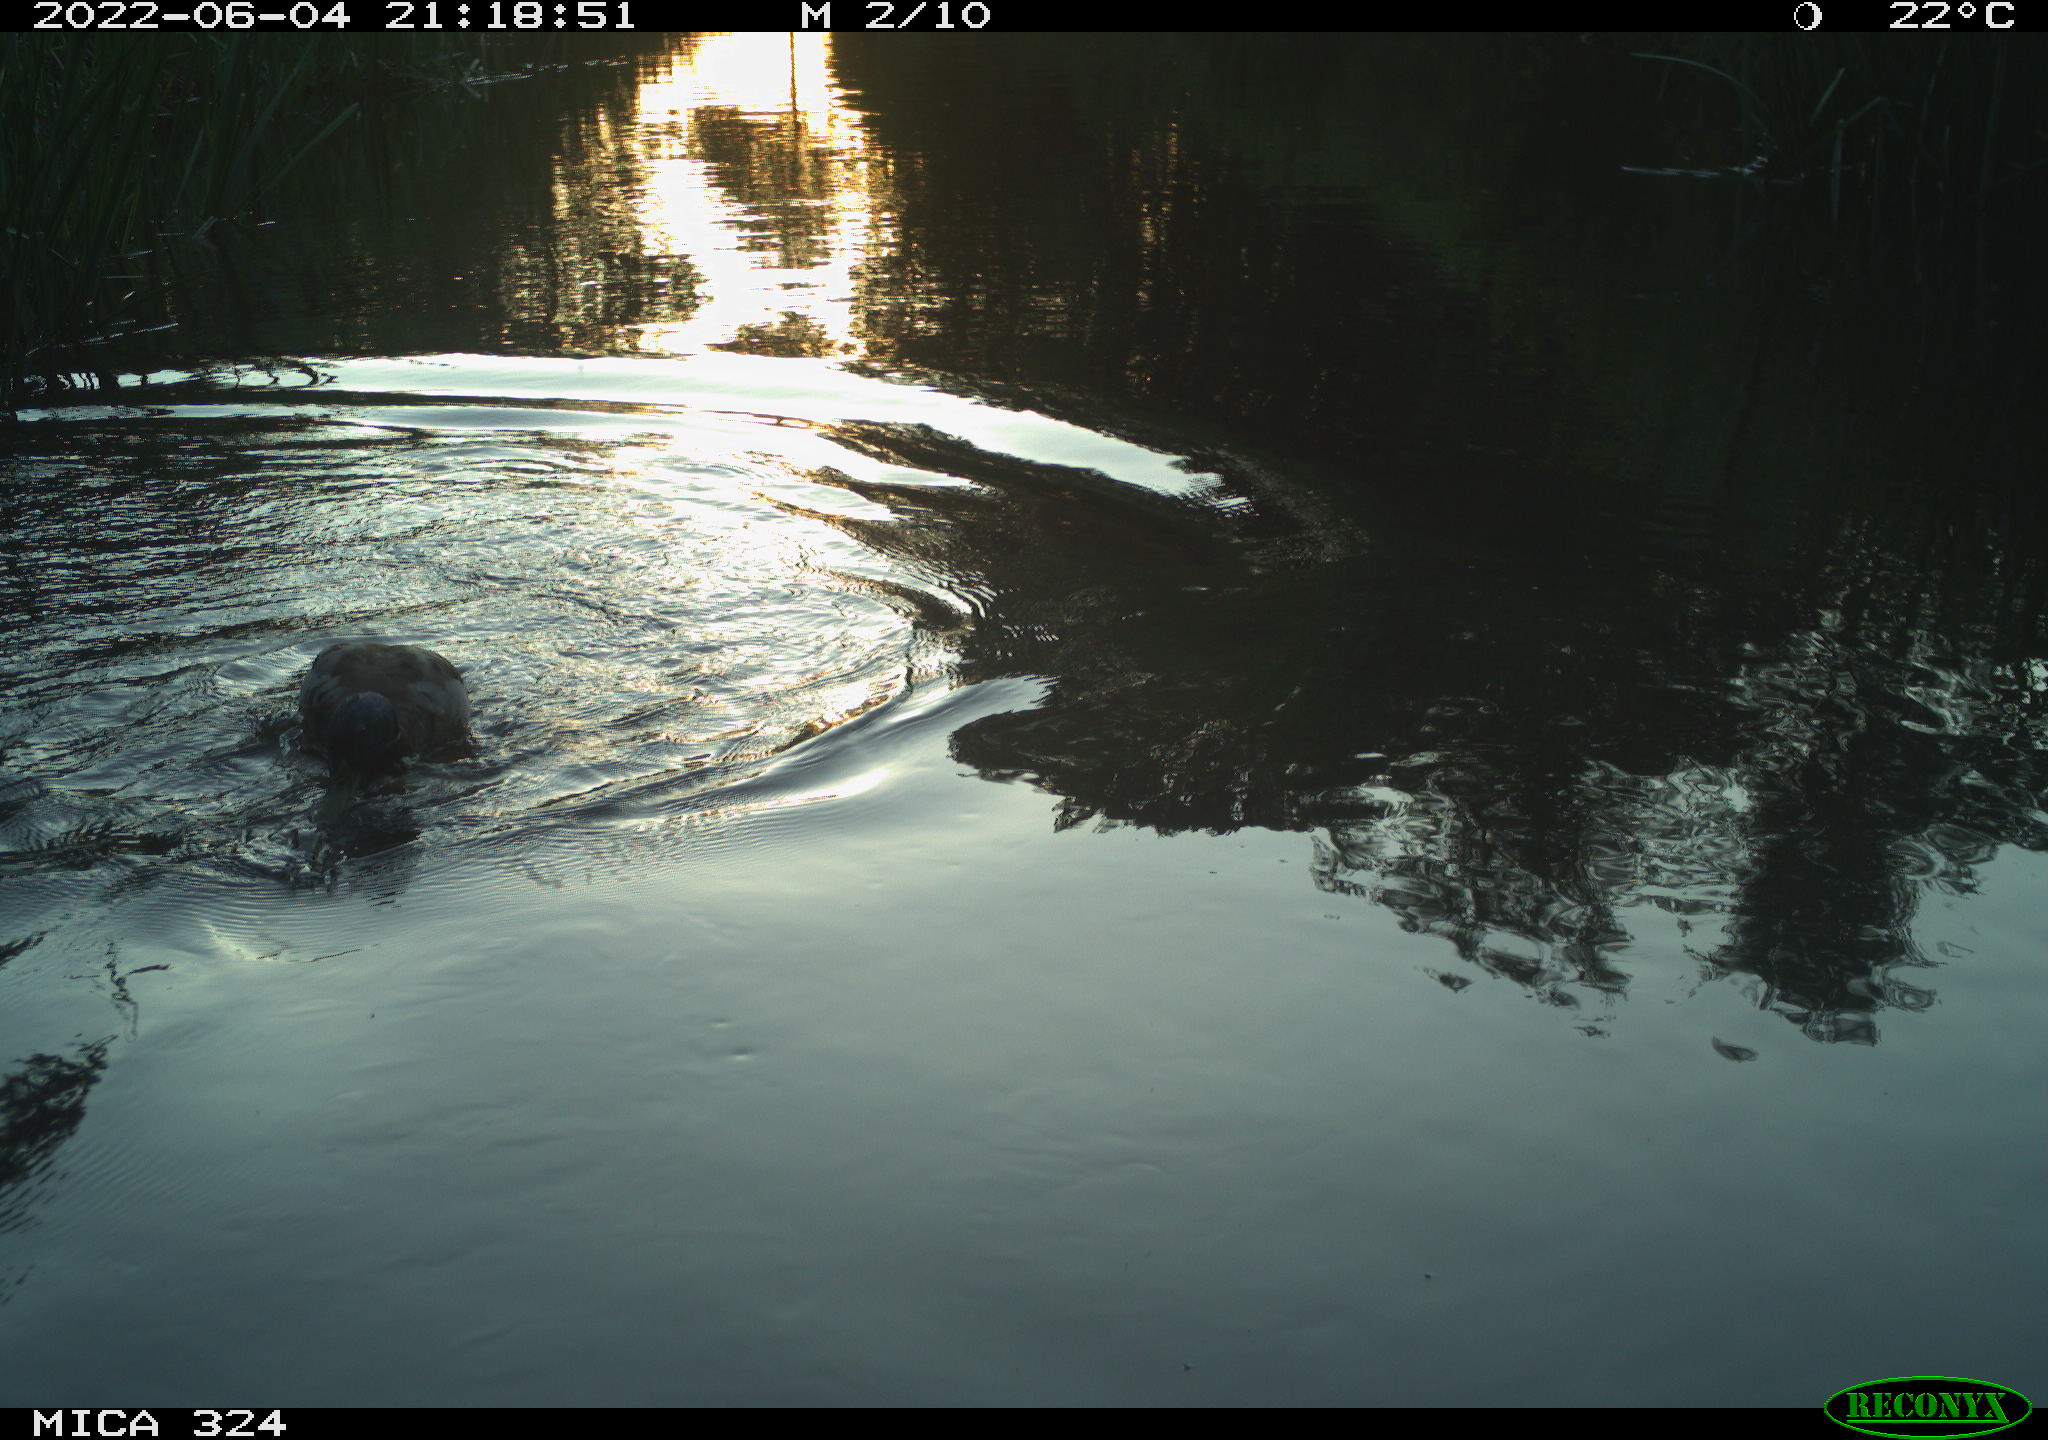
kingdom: Animalia
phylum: Chordata
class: Aves
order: Anseriformes
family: Anatidae
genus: Anas
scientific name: Anas platyrhynchos
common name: Mallard
